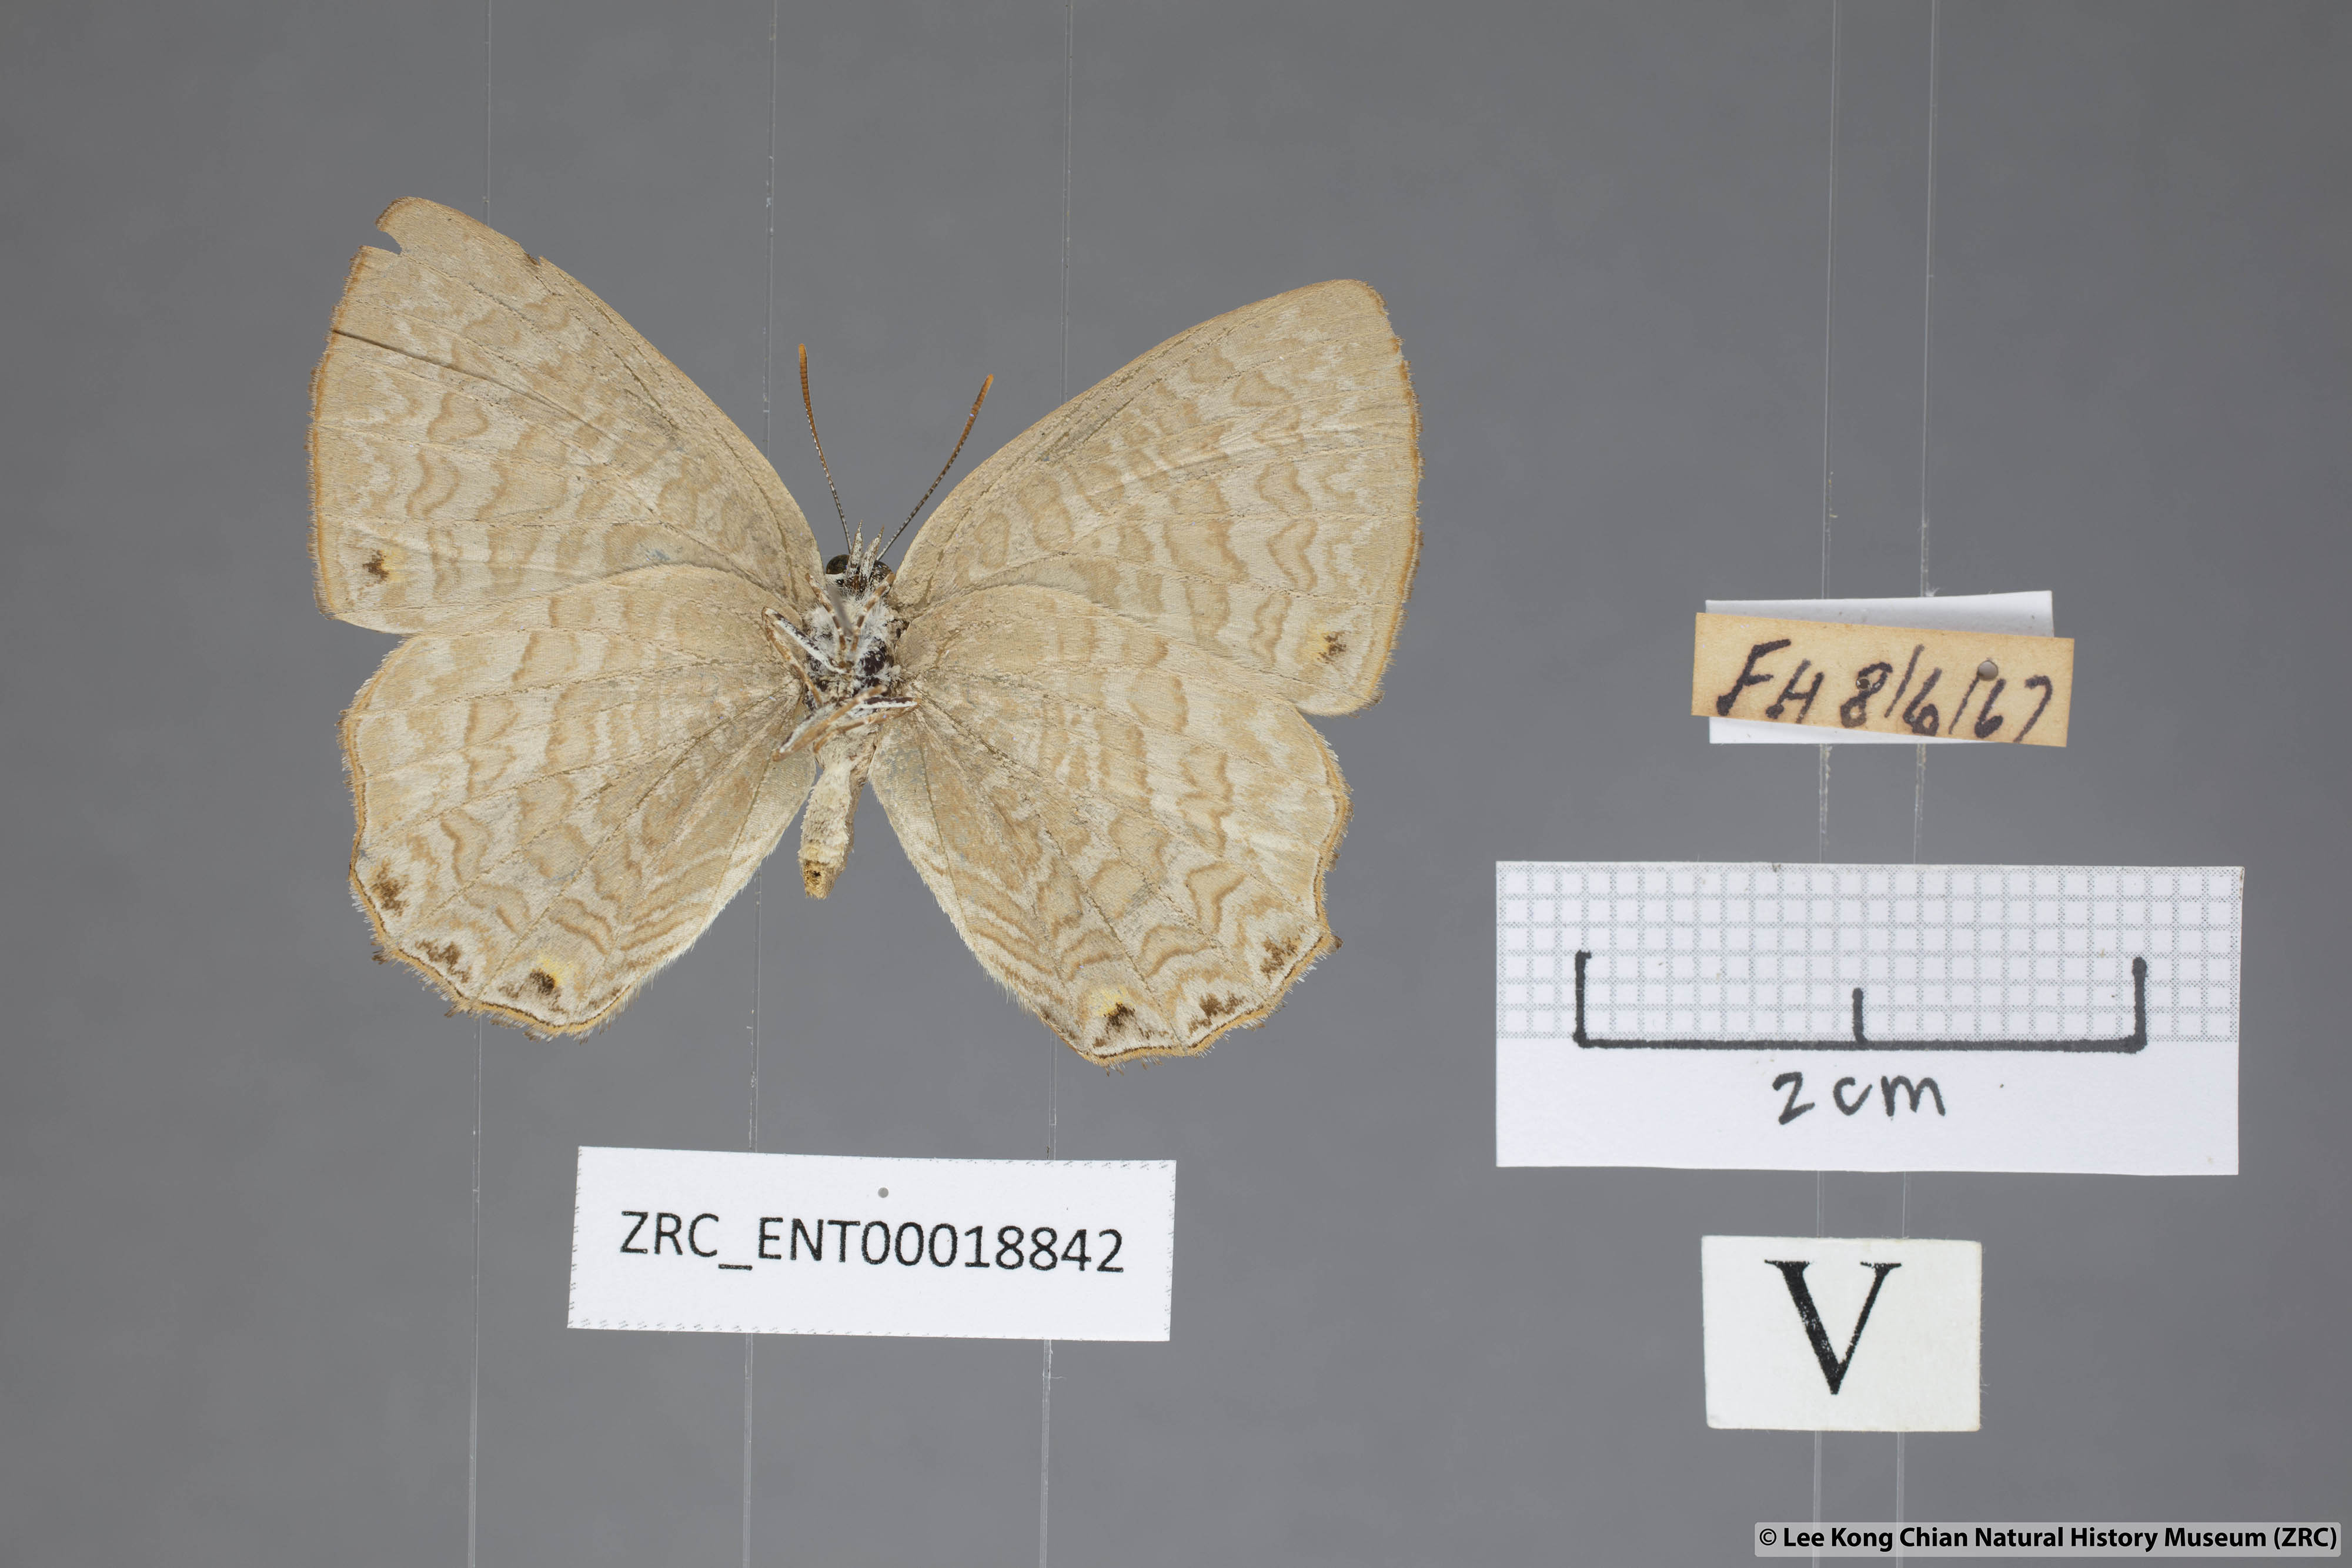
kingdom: Animalia
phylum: Arthropoda
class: Insecta
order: Lepidoptera
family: Lycaenidae
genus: Poritia
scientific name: Poritia promula
